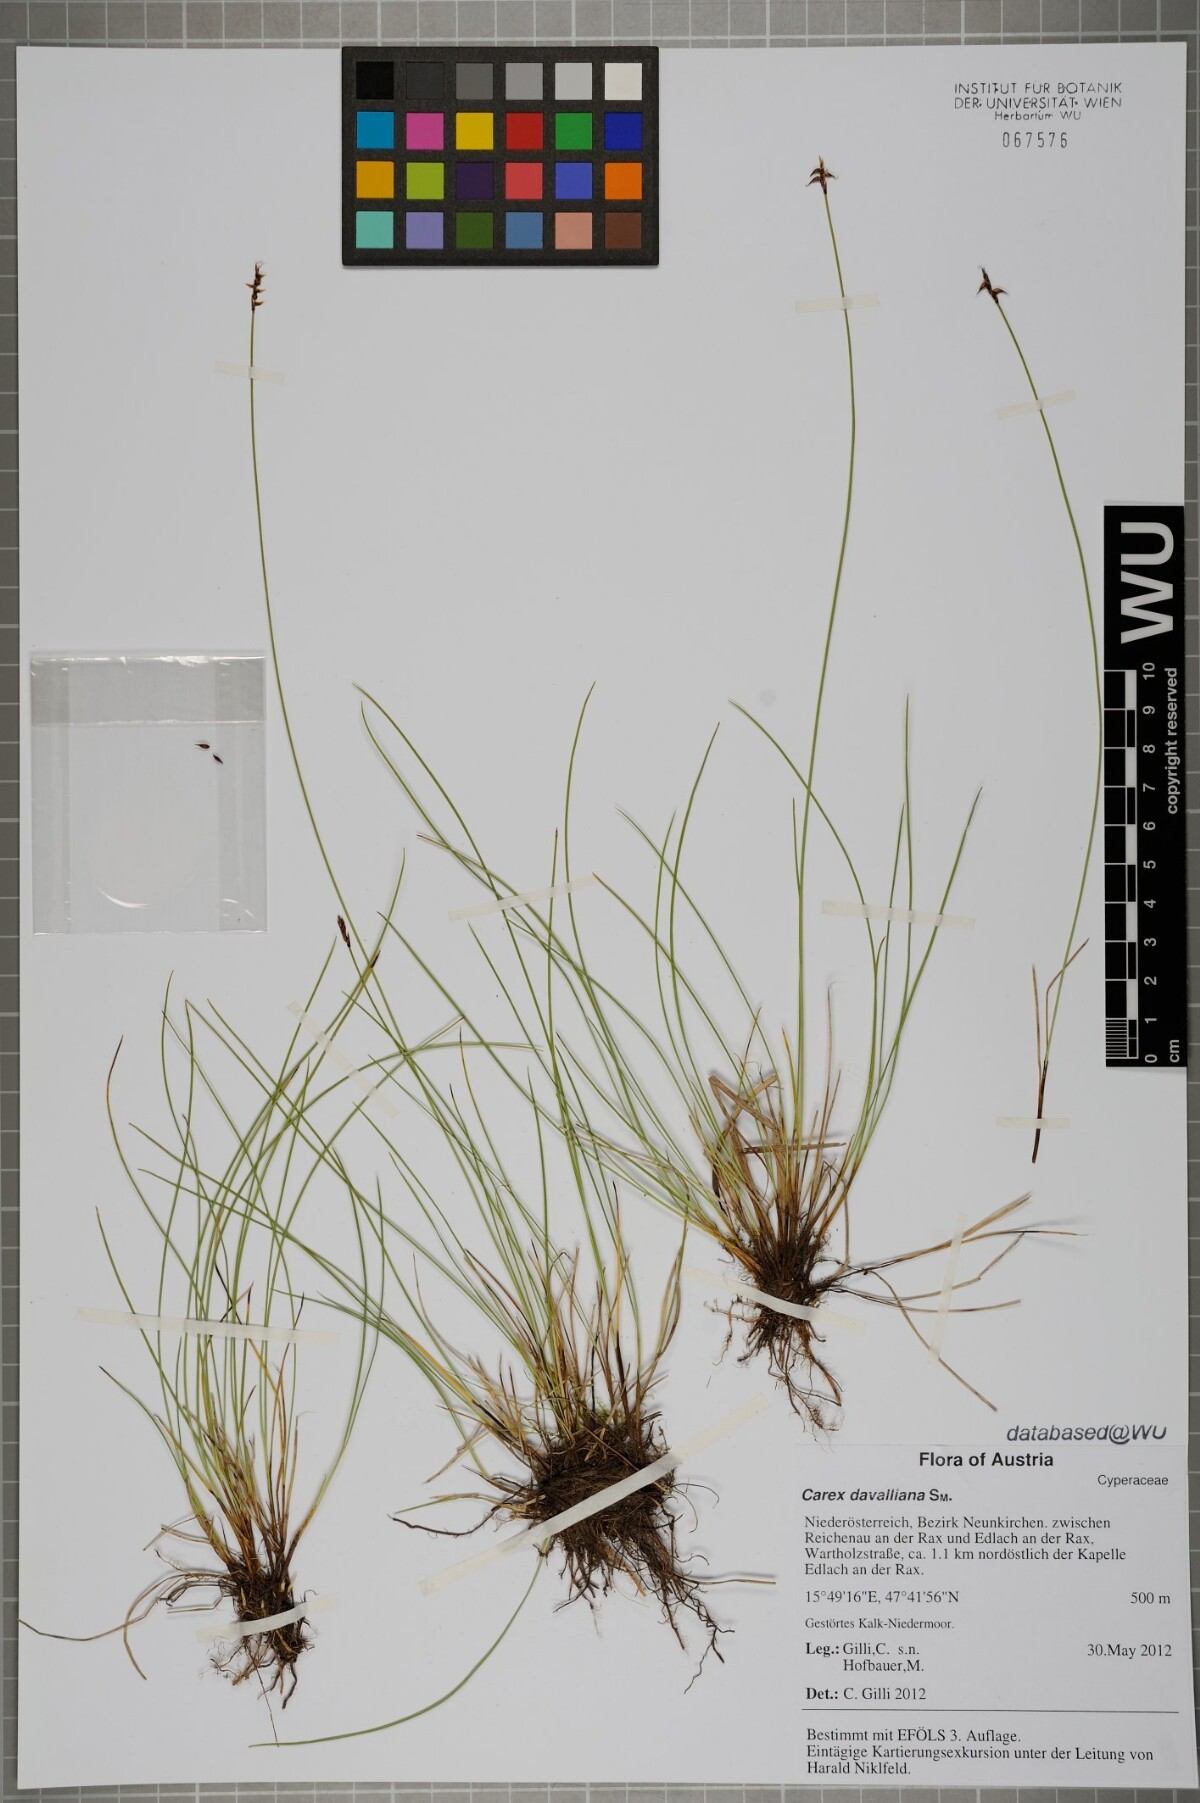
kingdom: Plantae
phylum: Tracheophyta
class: Liliopsida
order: Poales
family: Cyperaceae
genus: Carex
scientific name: Carex davalliana
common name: Davall's sedge
